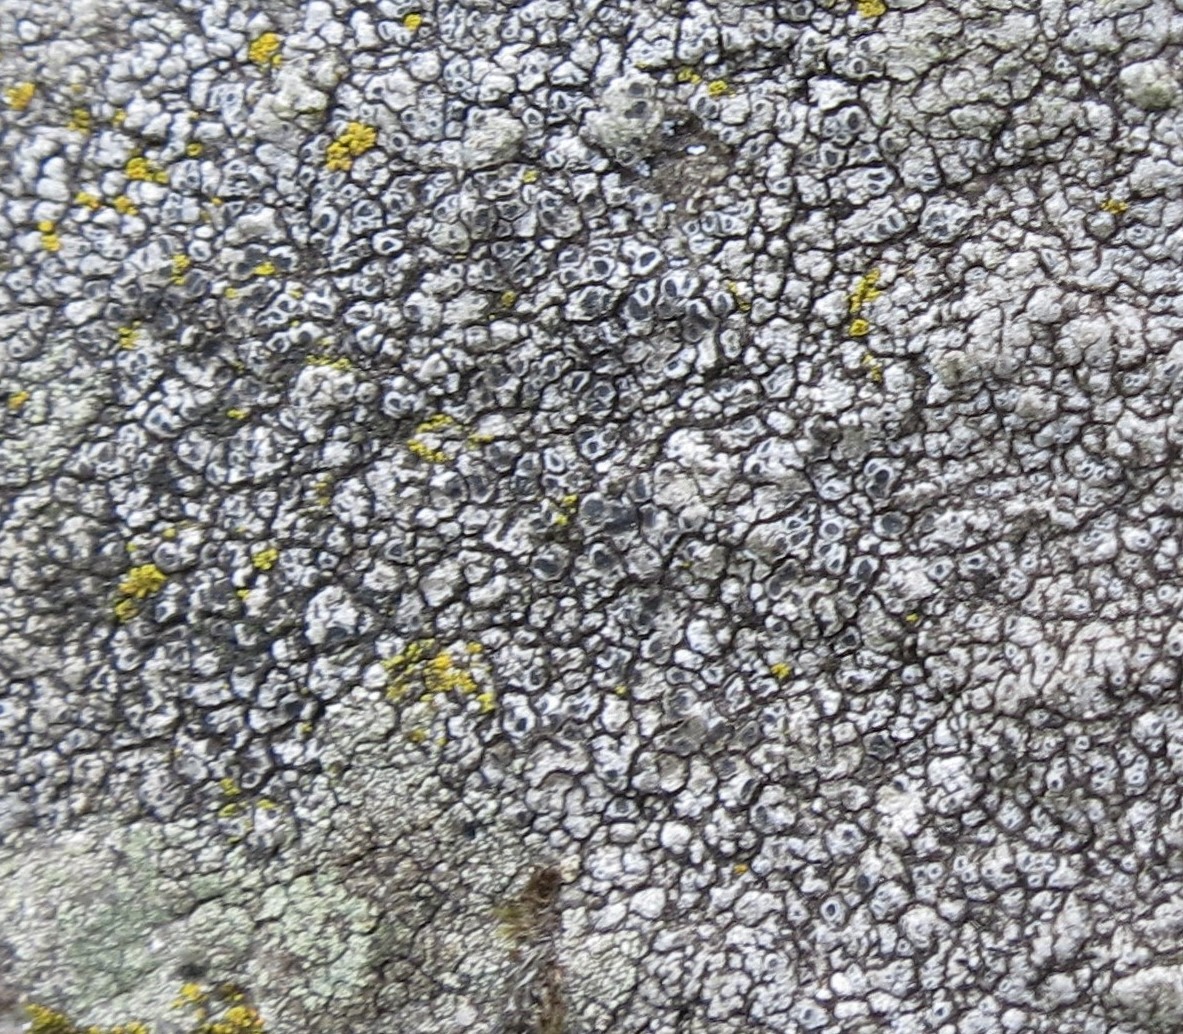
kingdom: Fungi
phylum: Ascomycota
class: Lecanoromycetes
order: Pertusariales
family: Megasporaceae
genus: Circinaria
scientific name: Circinaria caesiocinerea
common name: fuglestens-hulskivelav
